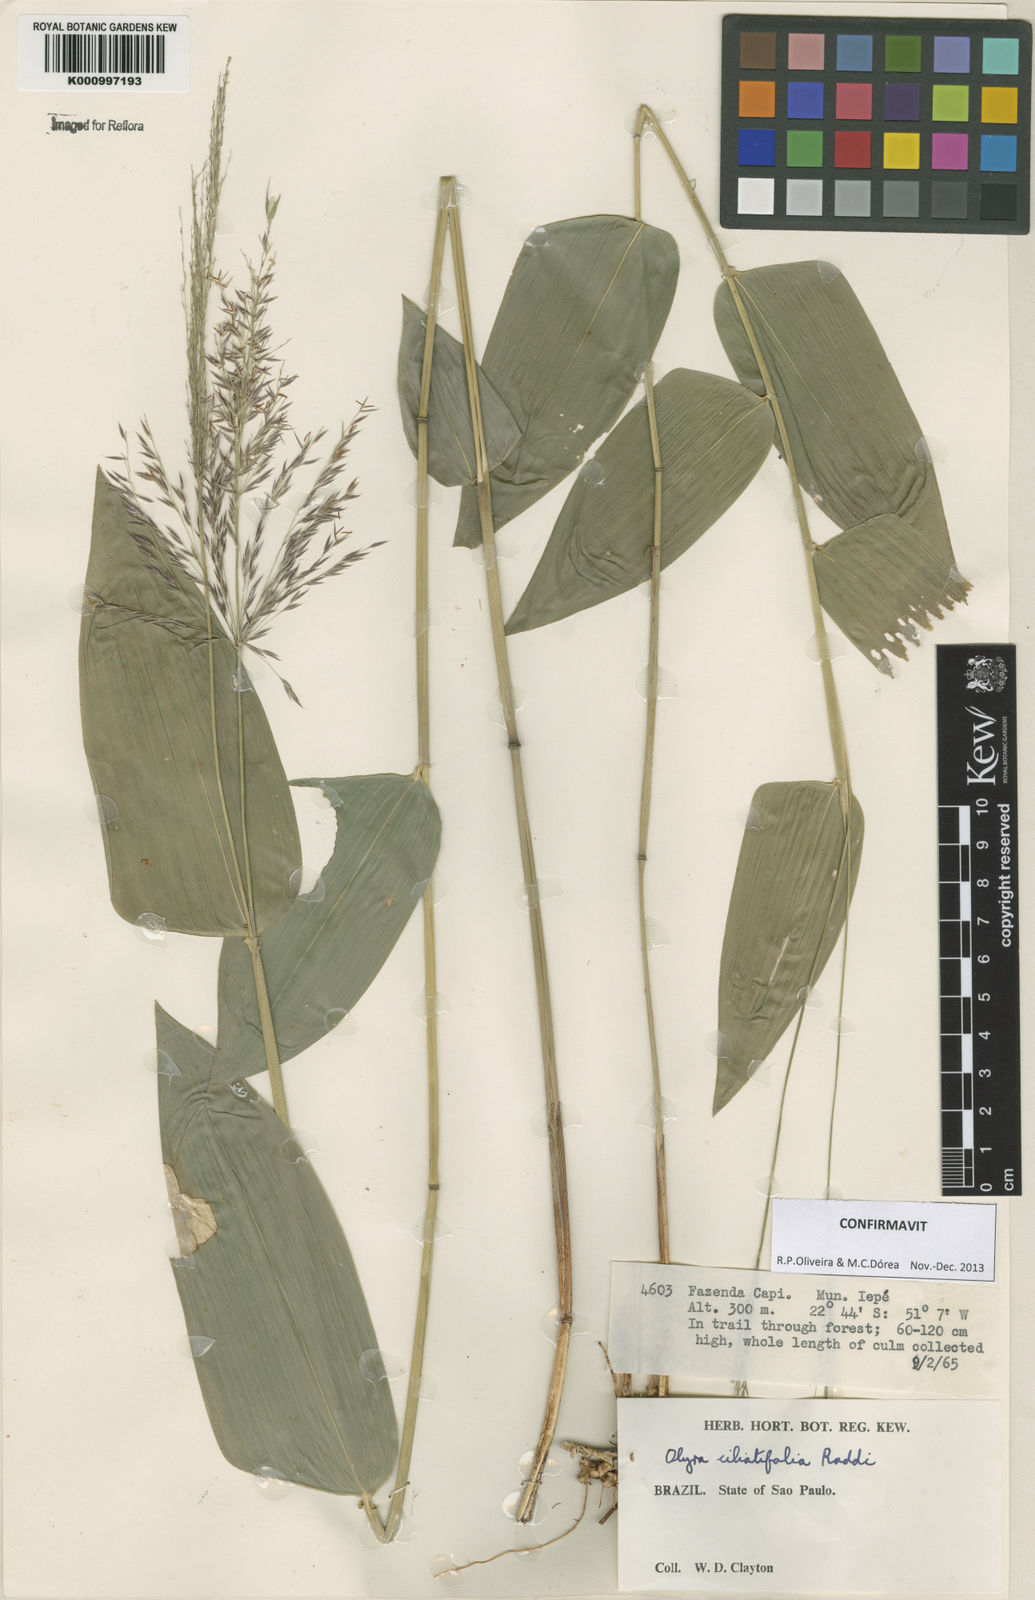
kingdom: Plantae
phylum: Tracheophyta
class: Liliopsida
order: Poales
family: Poaceae
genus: Olyra
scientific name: Olyra ciliatifolia
